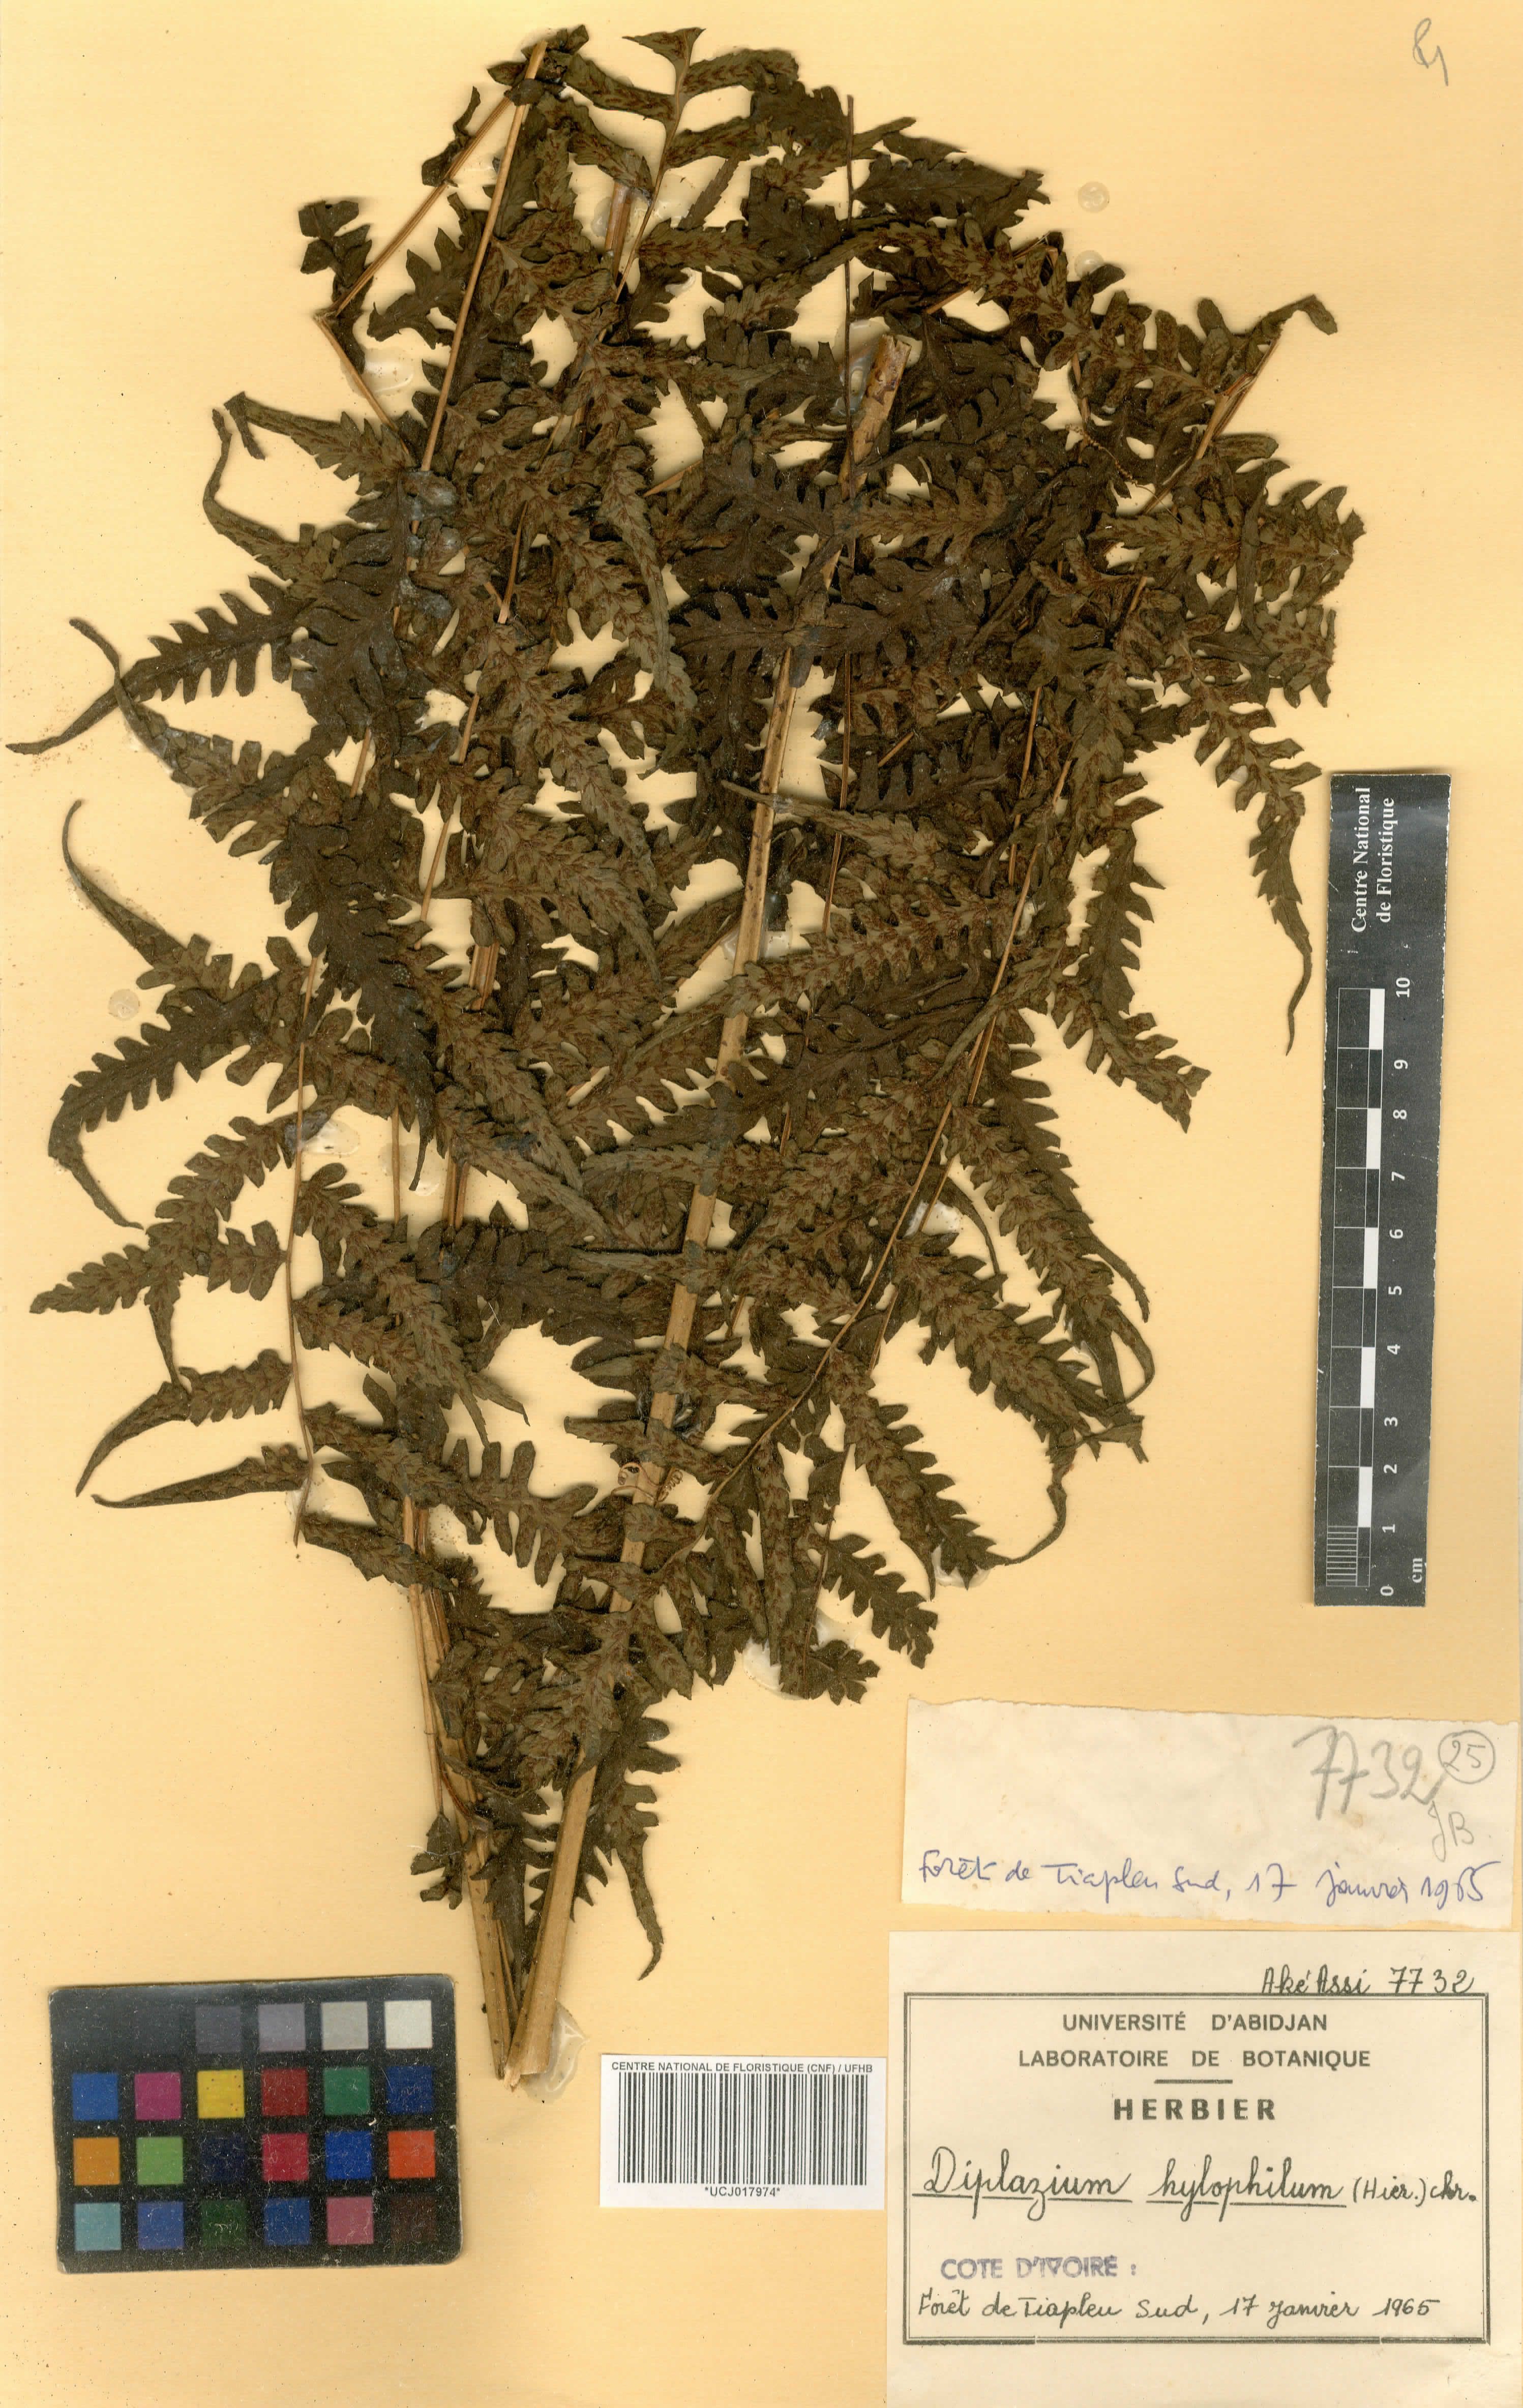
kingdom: Plantae
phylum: Tracheophyta
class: Polypodiopsida
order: Polypodiales
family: Athyriaceae
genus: Diplazium
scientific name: Diplazium nemorale
